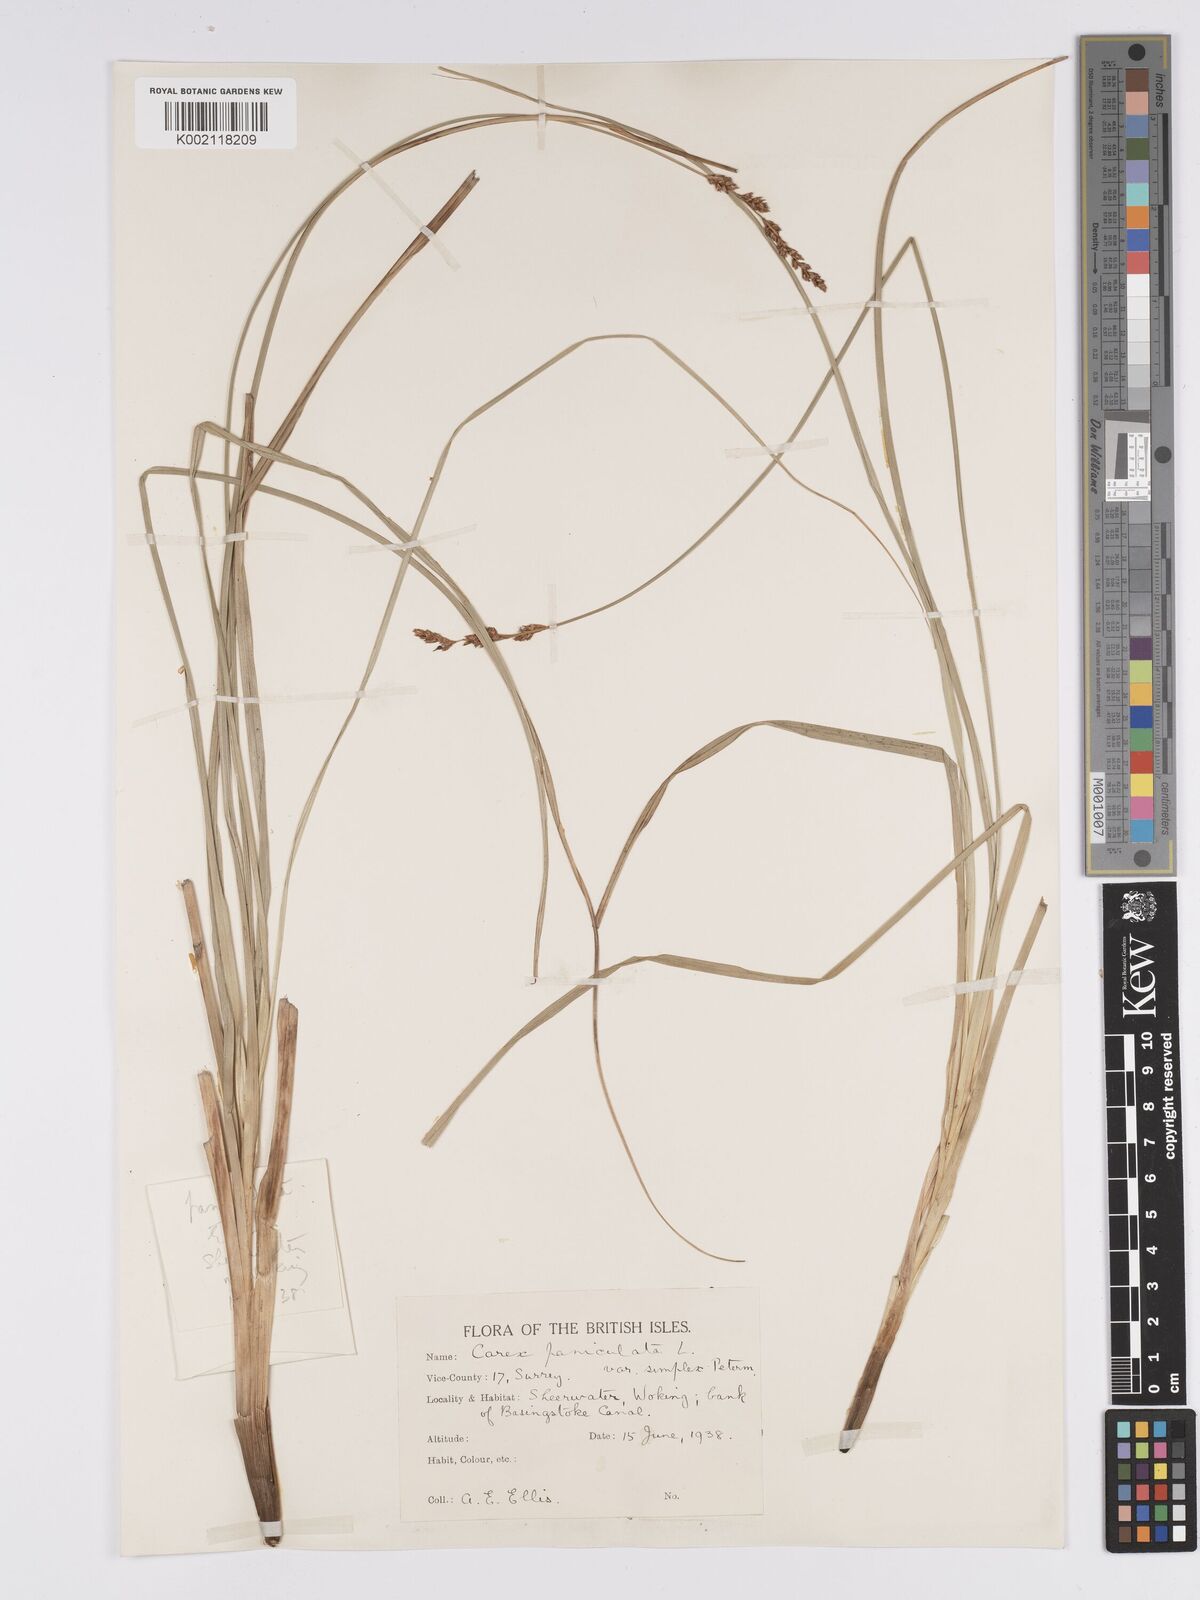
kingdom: Plantae
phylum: Tracheophyta
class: Liliopsida
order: Poales
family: Cyperaceae
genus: Carex
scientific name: Carex paniculata
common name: Greater tussock-sedge
